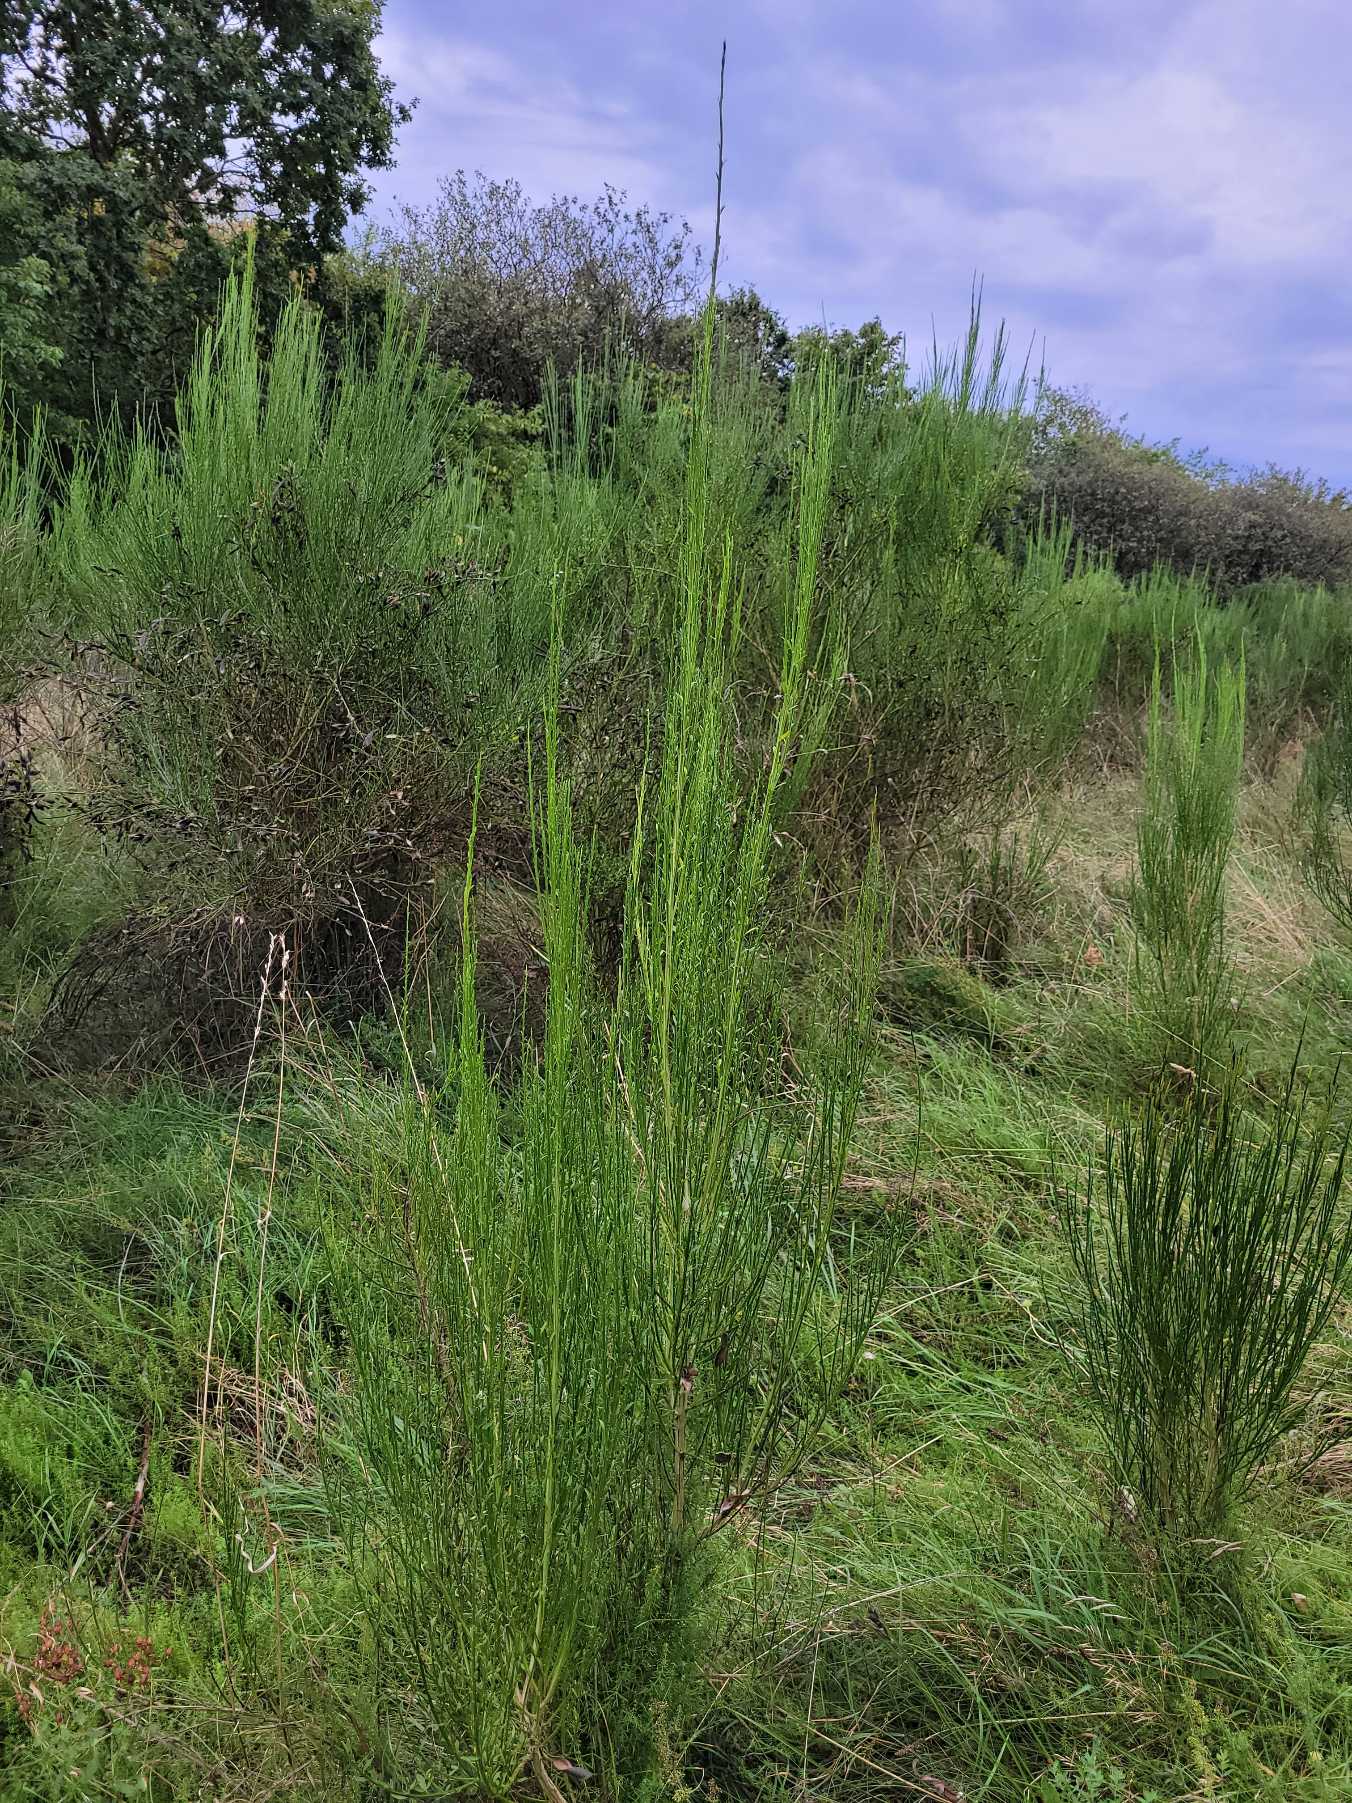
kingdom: Plantae
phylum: Tracheophyta
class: Magnoliopsida
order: Fabales
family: Fabaceae
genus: Cytisus
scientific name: Cytisus scoparius
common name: Almindelig gyvel
